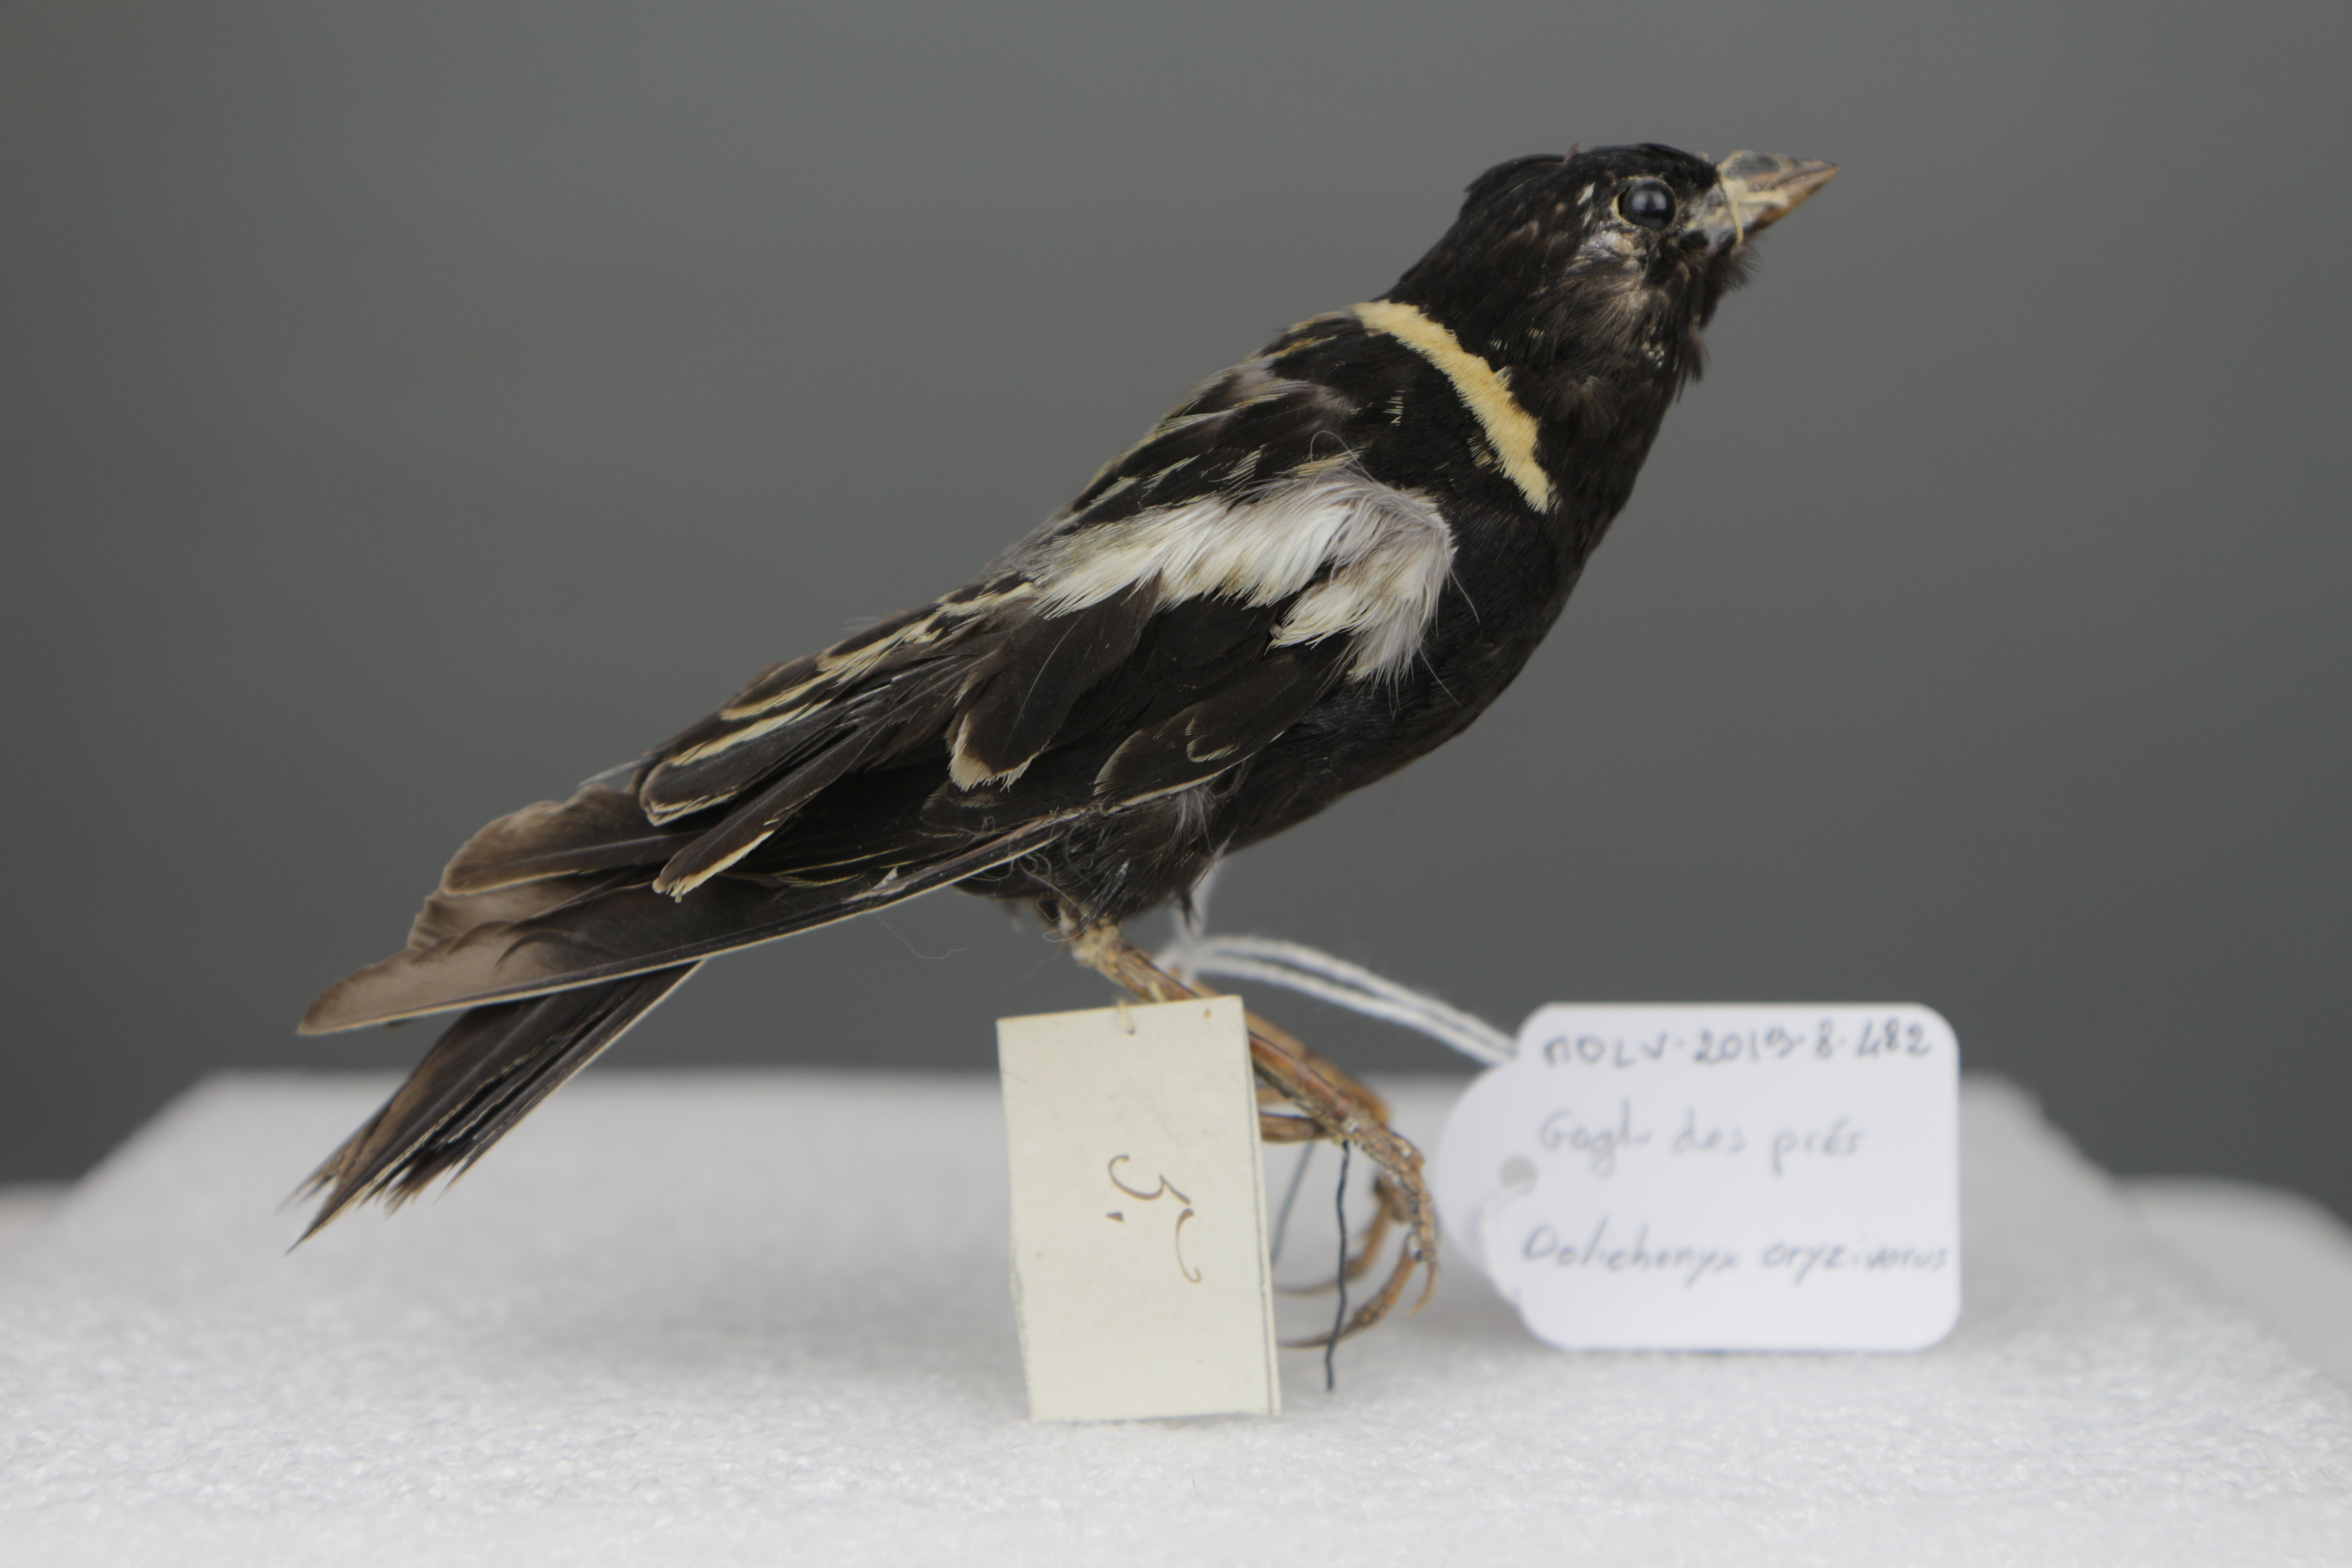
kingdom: Animalia
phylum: Chordata
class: Aves
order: Passeriformes
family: Icteridae
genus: Dolichonyx
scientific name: Dolichonyx oryzivorus
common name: Bobolink
